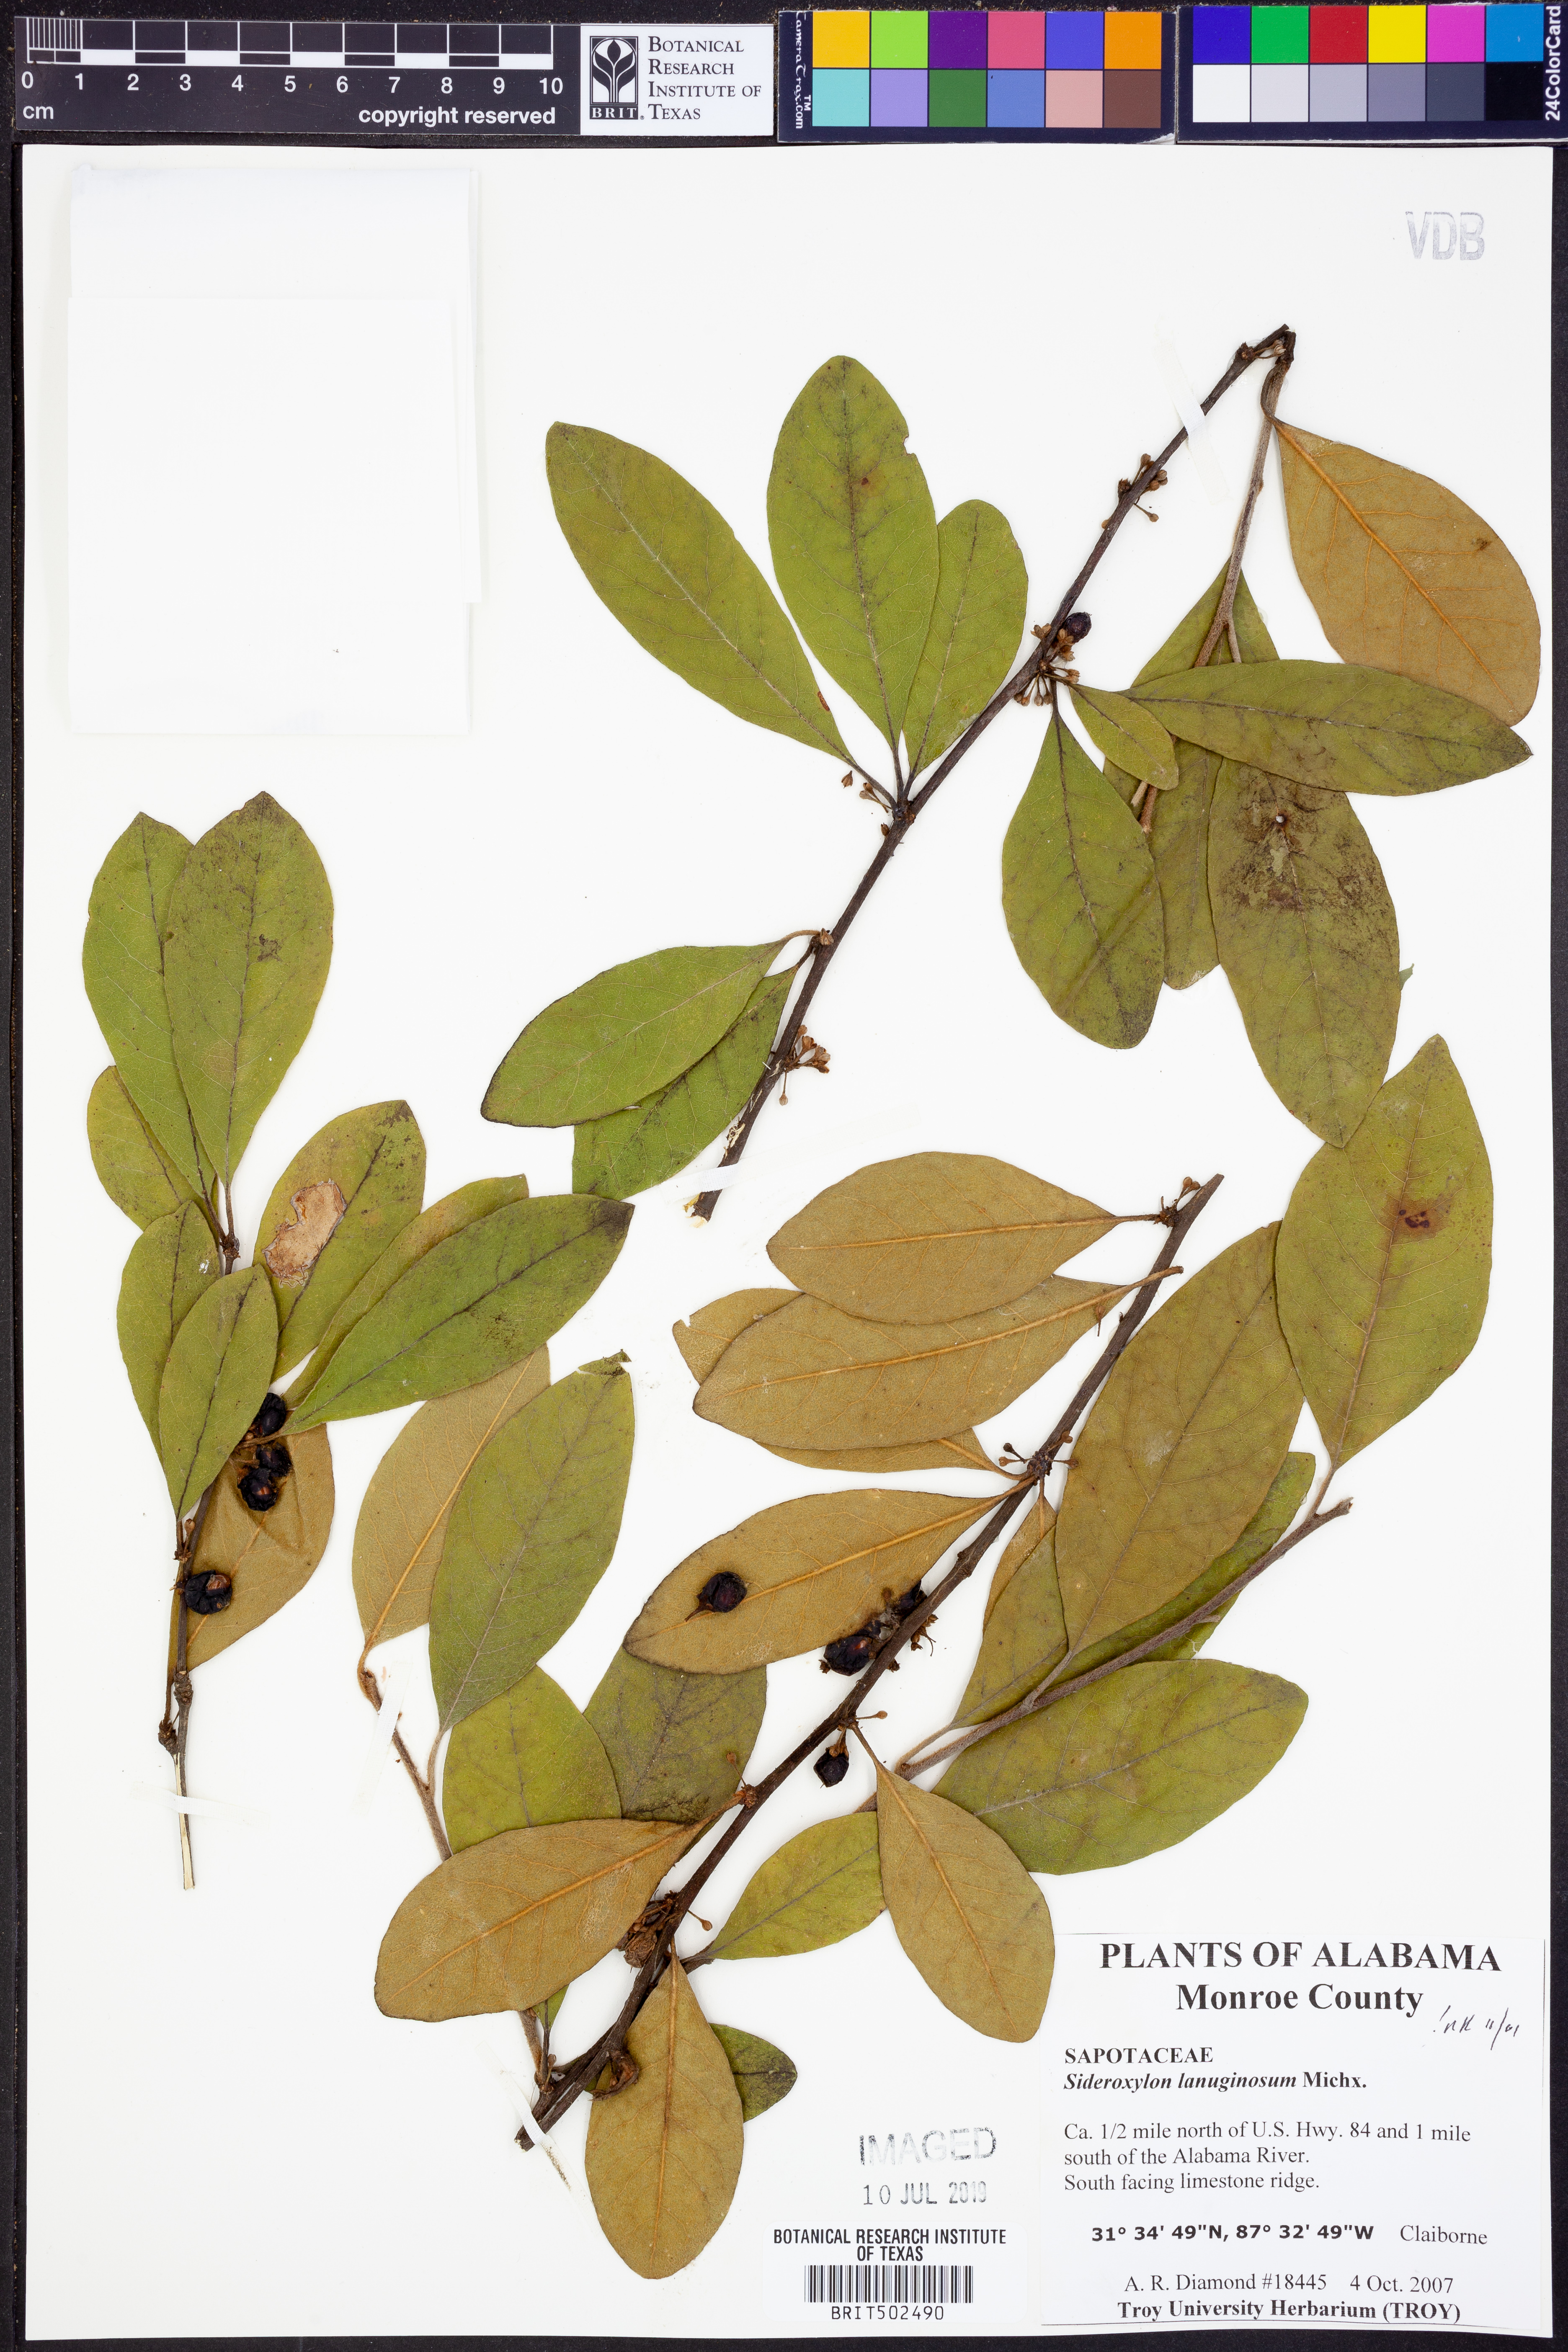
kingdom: Plantae
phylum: Tracheophyta
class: Magnoliopsida
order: Ericales
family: Sapotaceae
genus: Sideroxylon
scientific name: Sideroxylon lanuginosum
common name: Chittamwood
